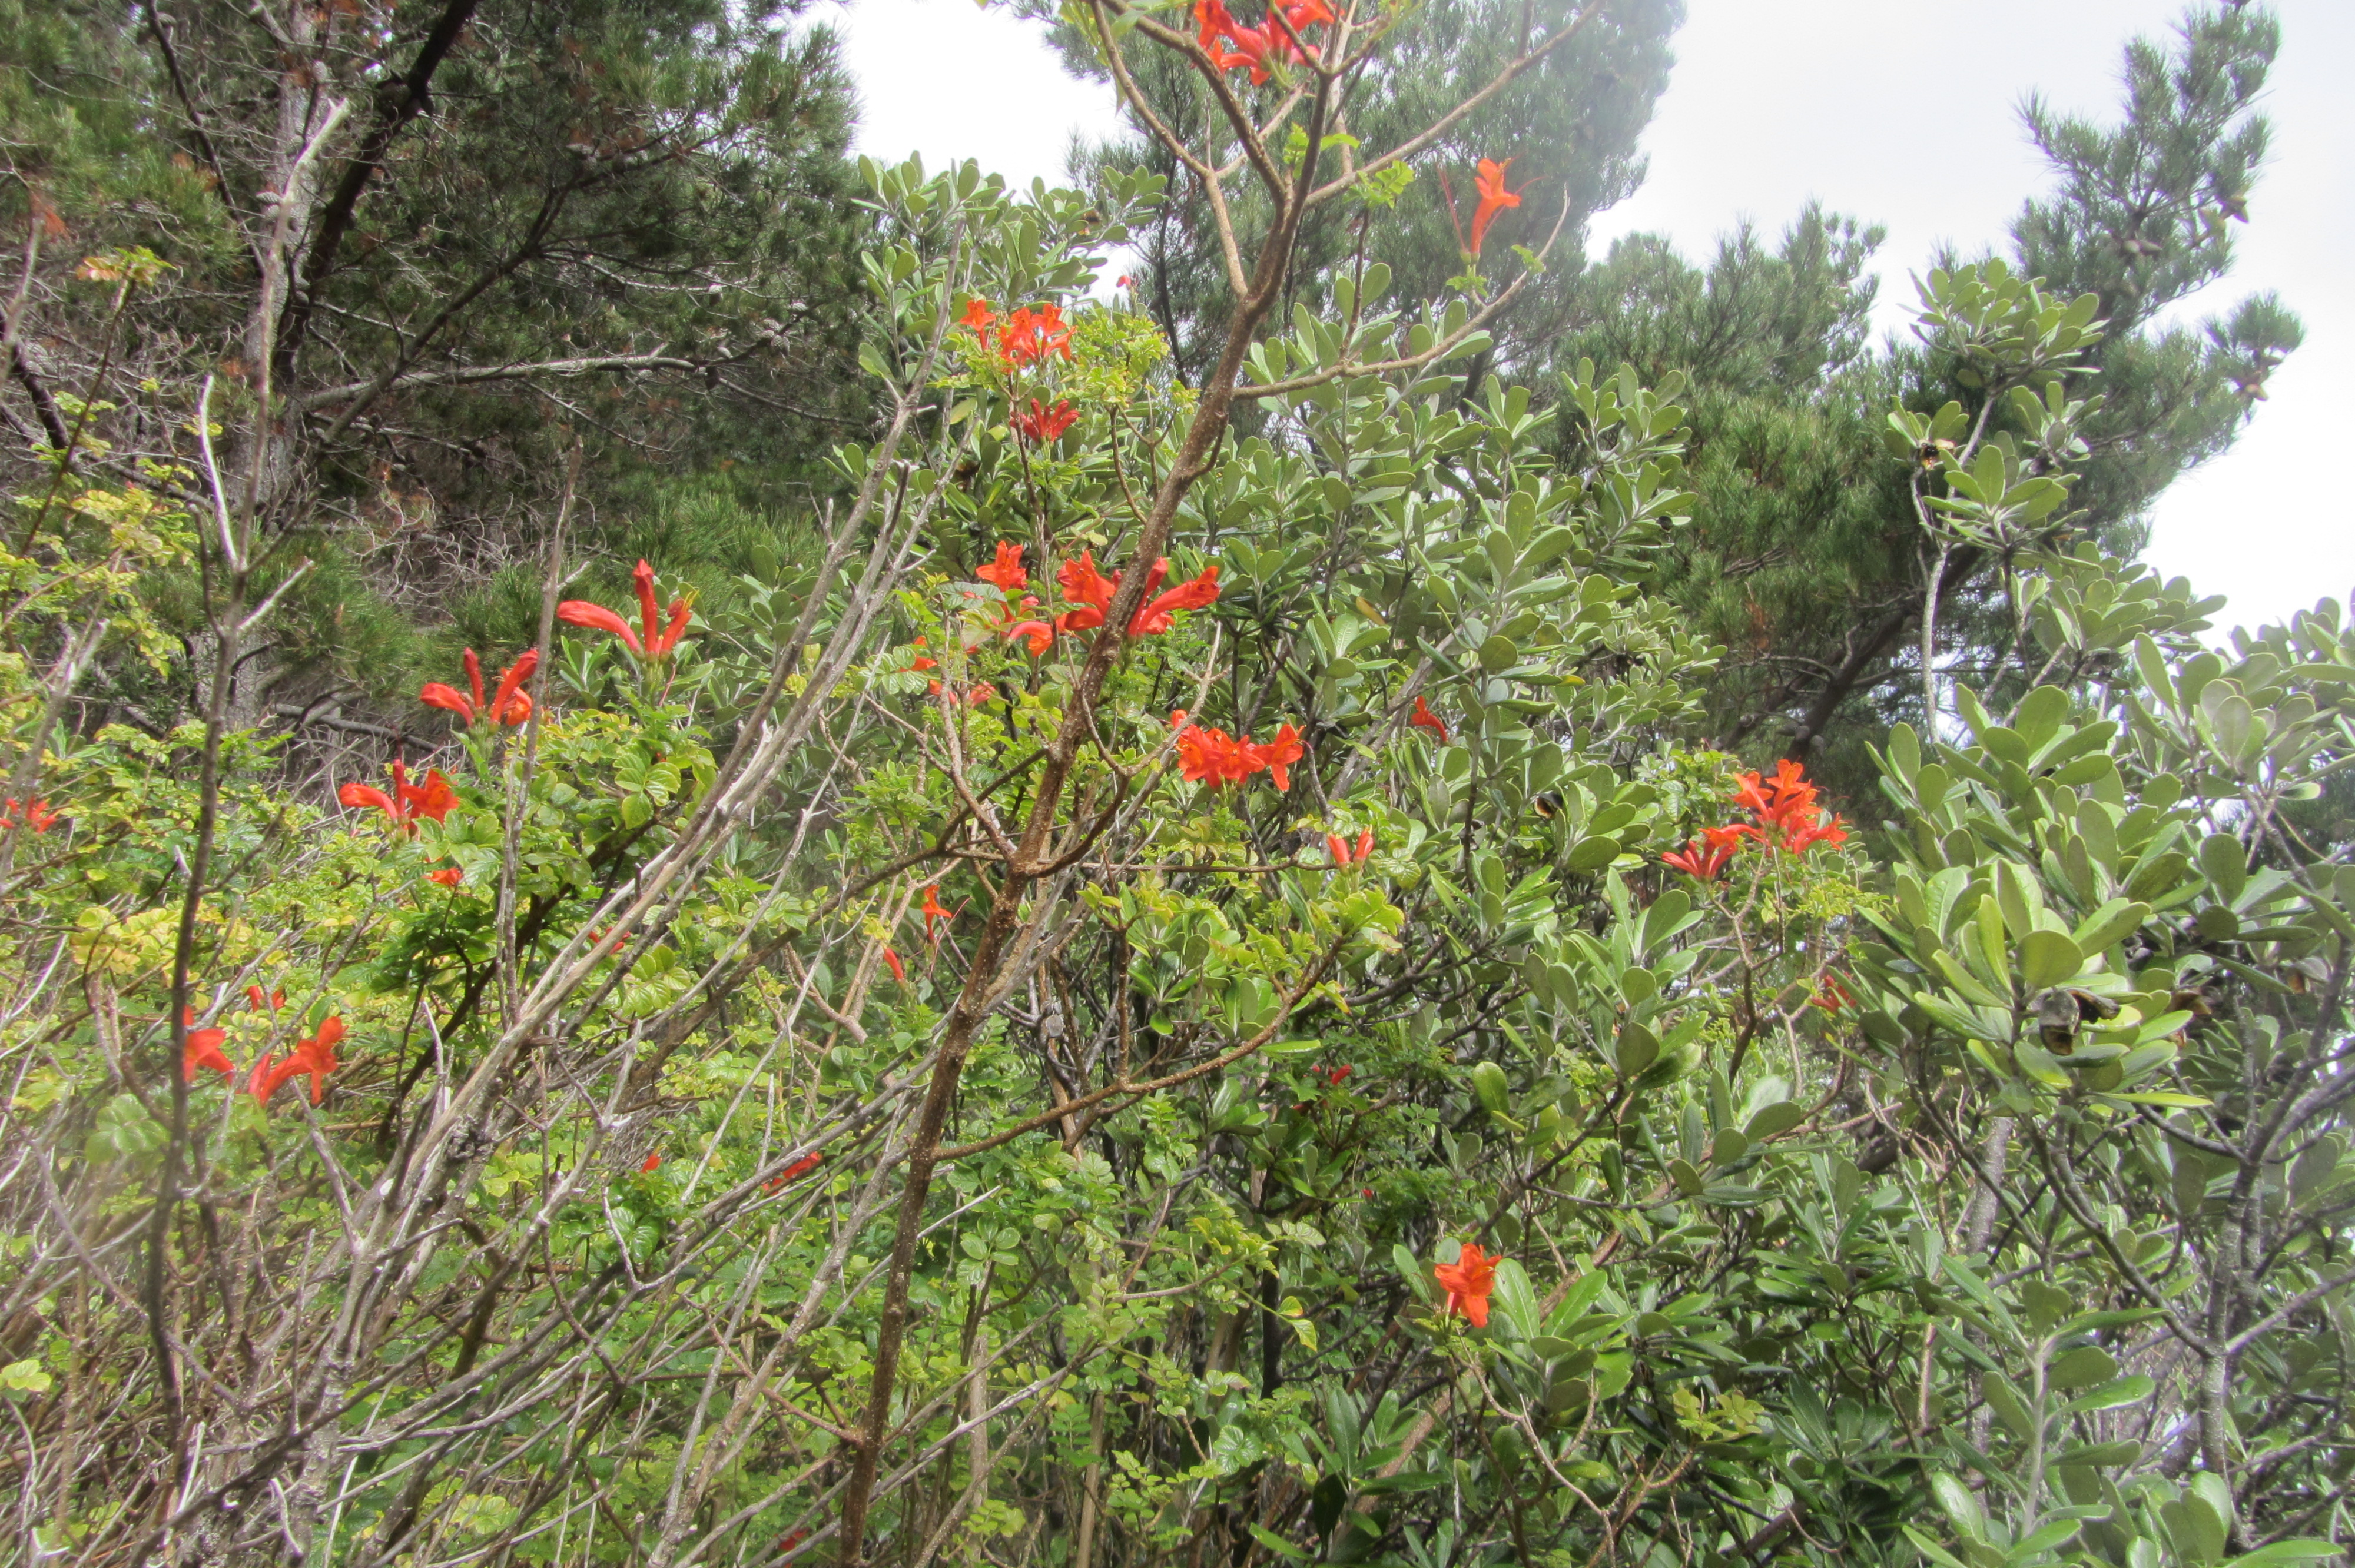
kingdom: Plantae
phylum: Tracheophyta
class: Magnoliopsida
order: Lamiales
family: Bignoniaceae
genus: Tecomaria
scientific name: Tecomaria capensis
